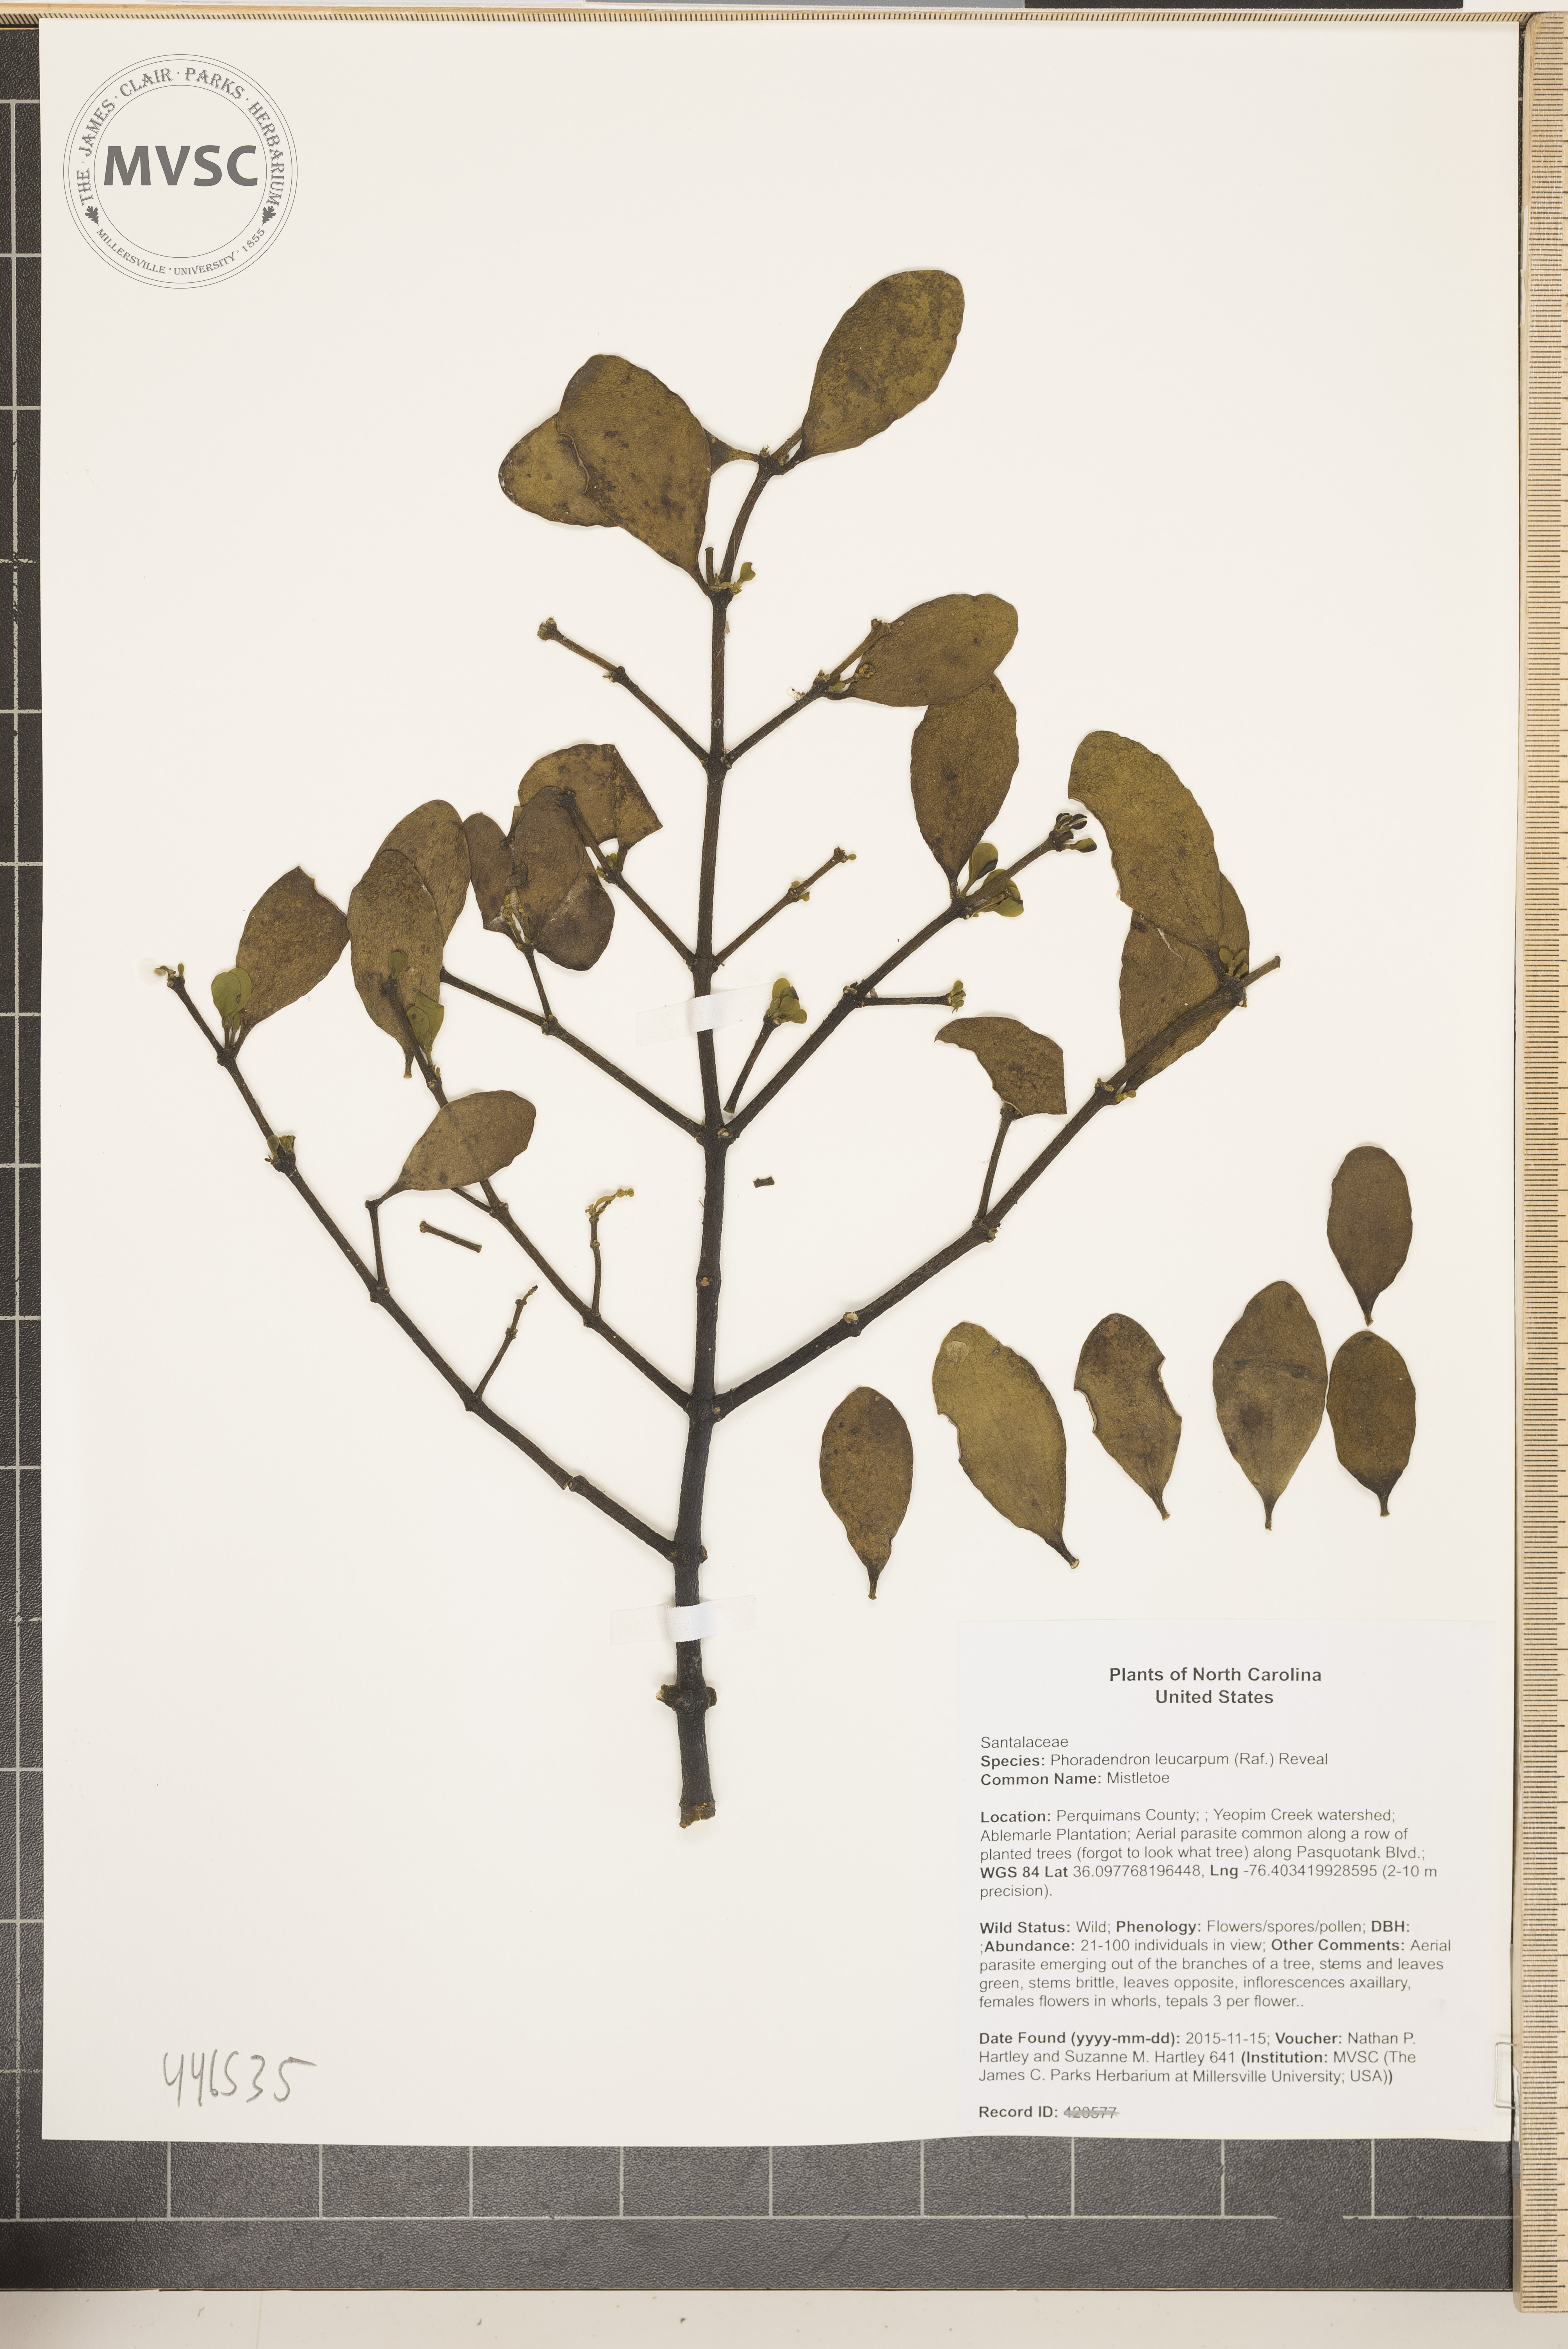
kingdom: Plantae
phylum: Tracheophyta
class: Magnoliopsida
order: Santalales
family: Viscaceae
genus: Phoradendron
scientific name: Phoradendron leucarpum
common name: Mistletoe
